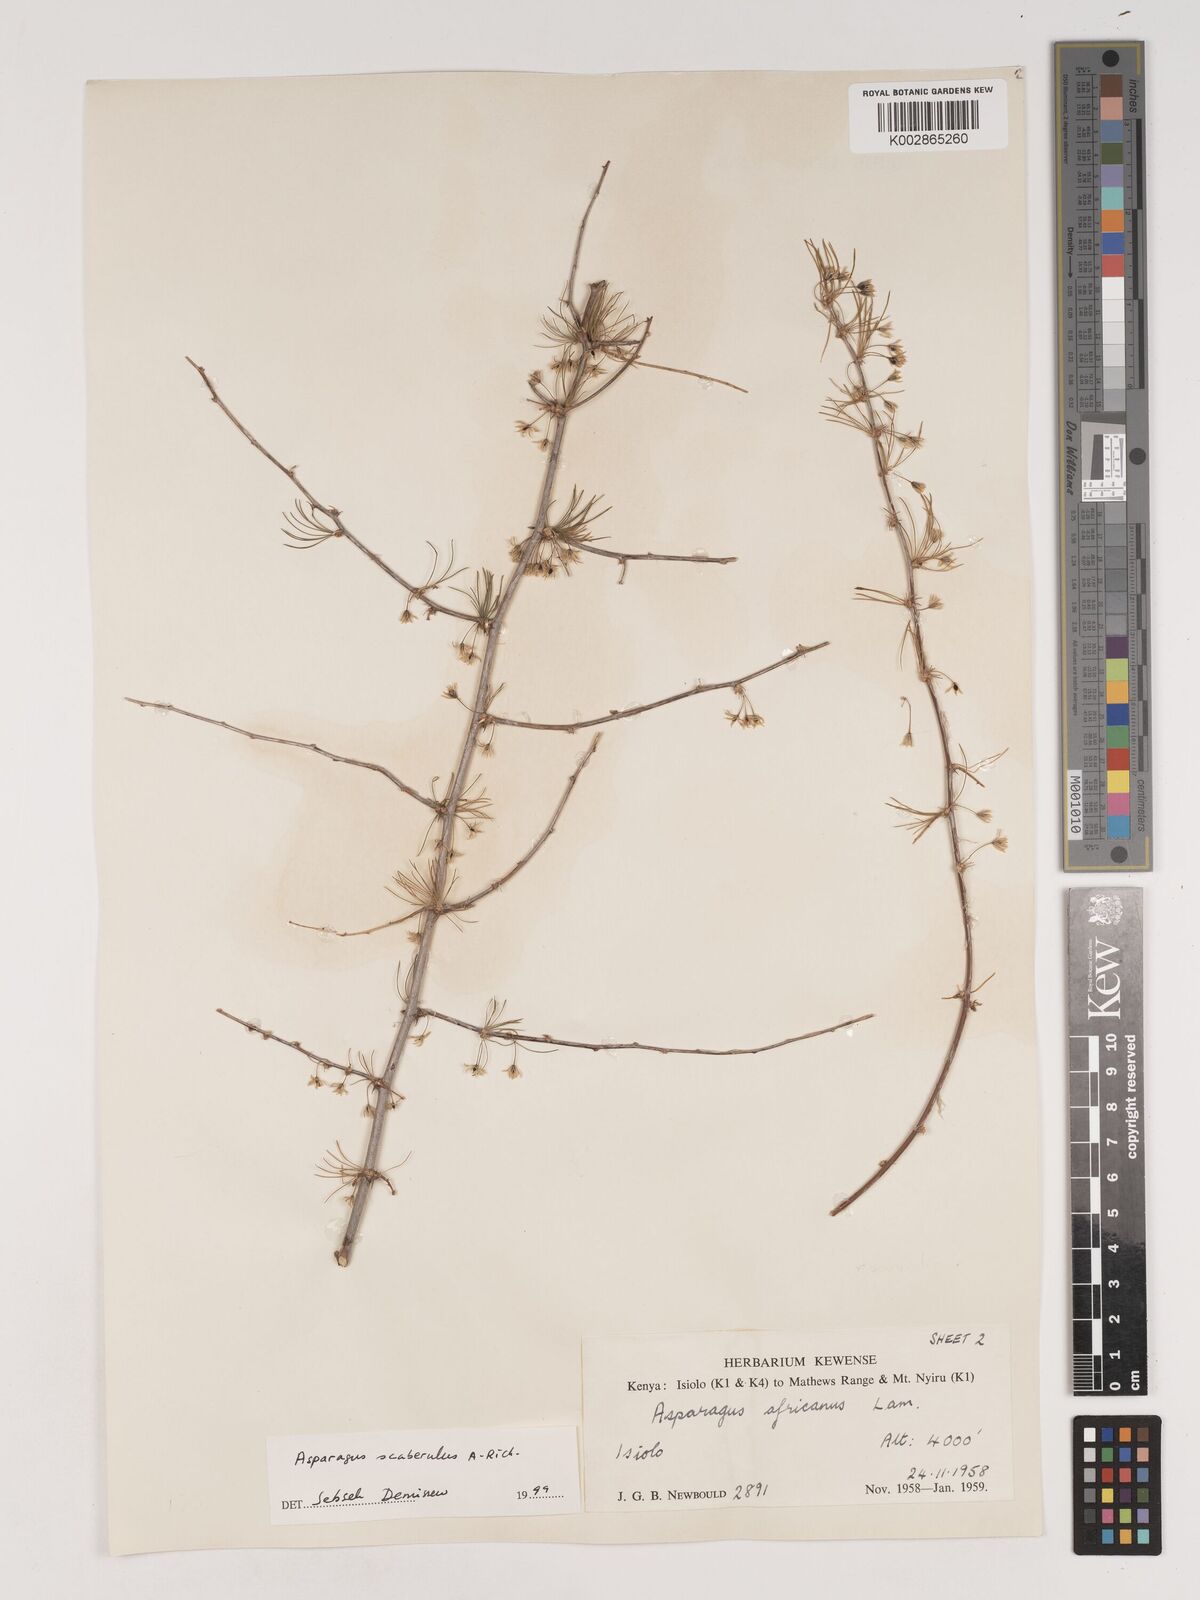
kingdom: Plantae
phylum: Tracheophyta
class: Liliopsida
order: Asparagales
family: Asparagaceae
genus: Asparagus
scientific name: Asparagus scaberulus
